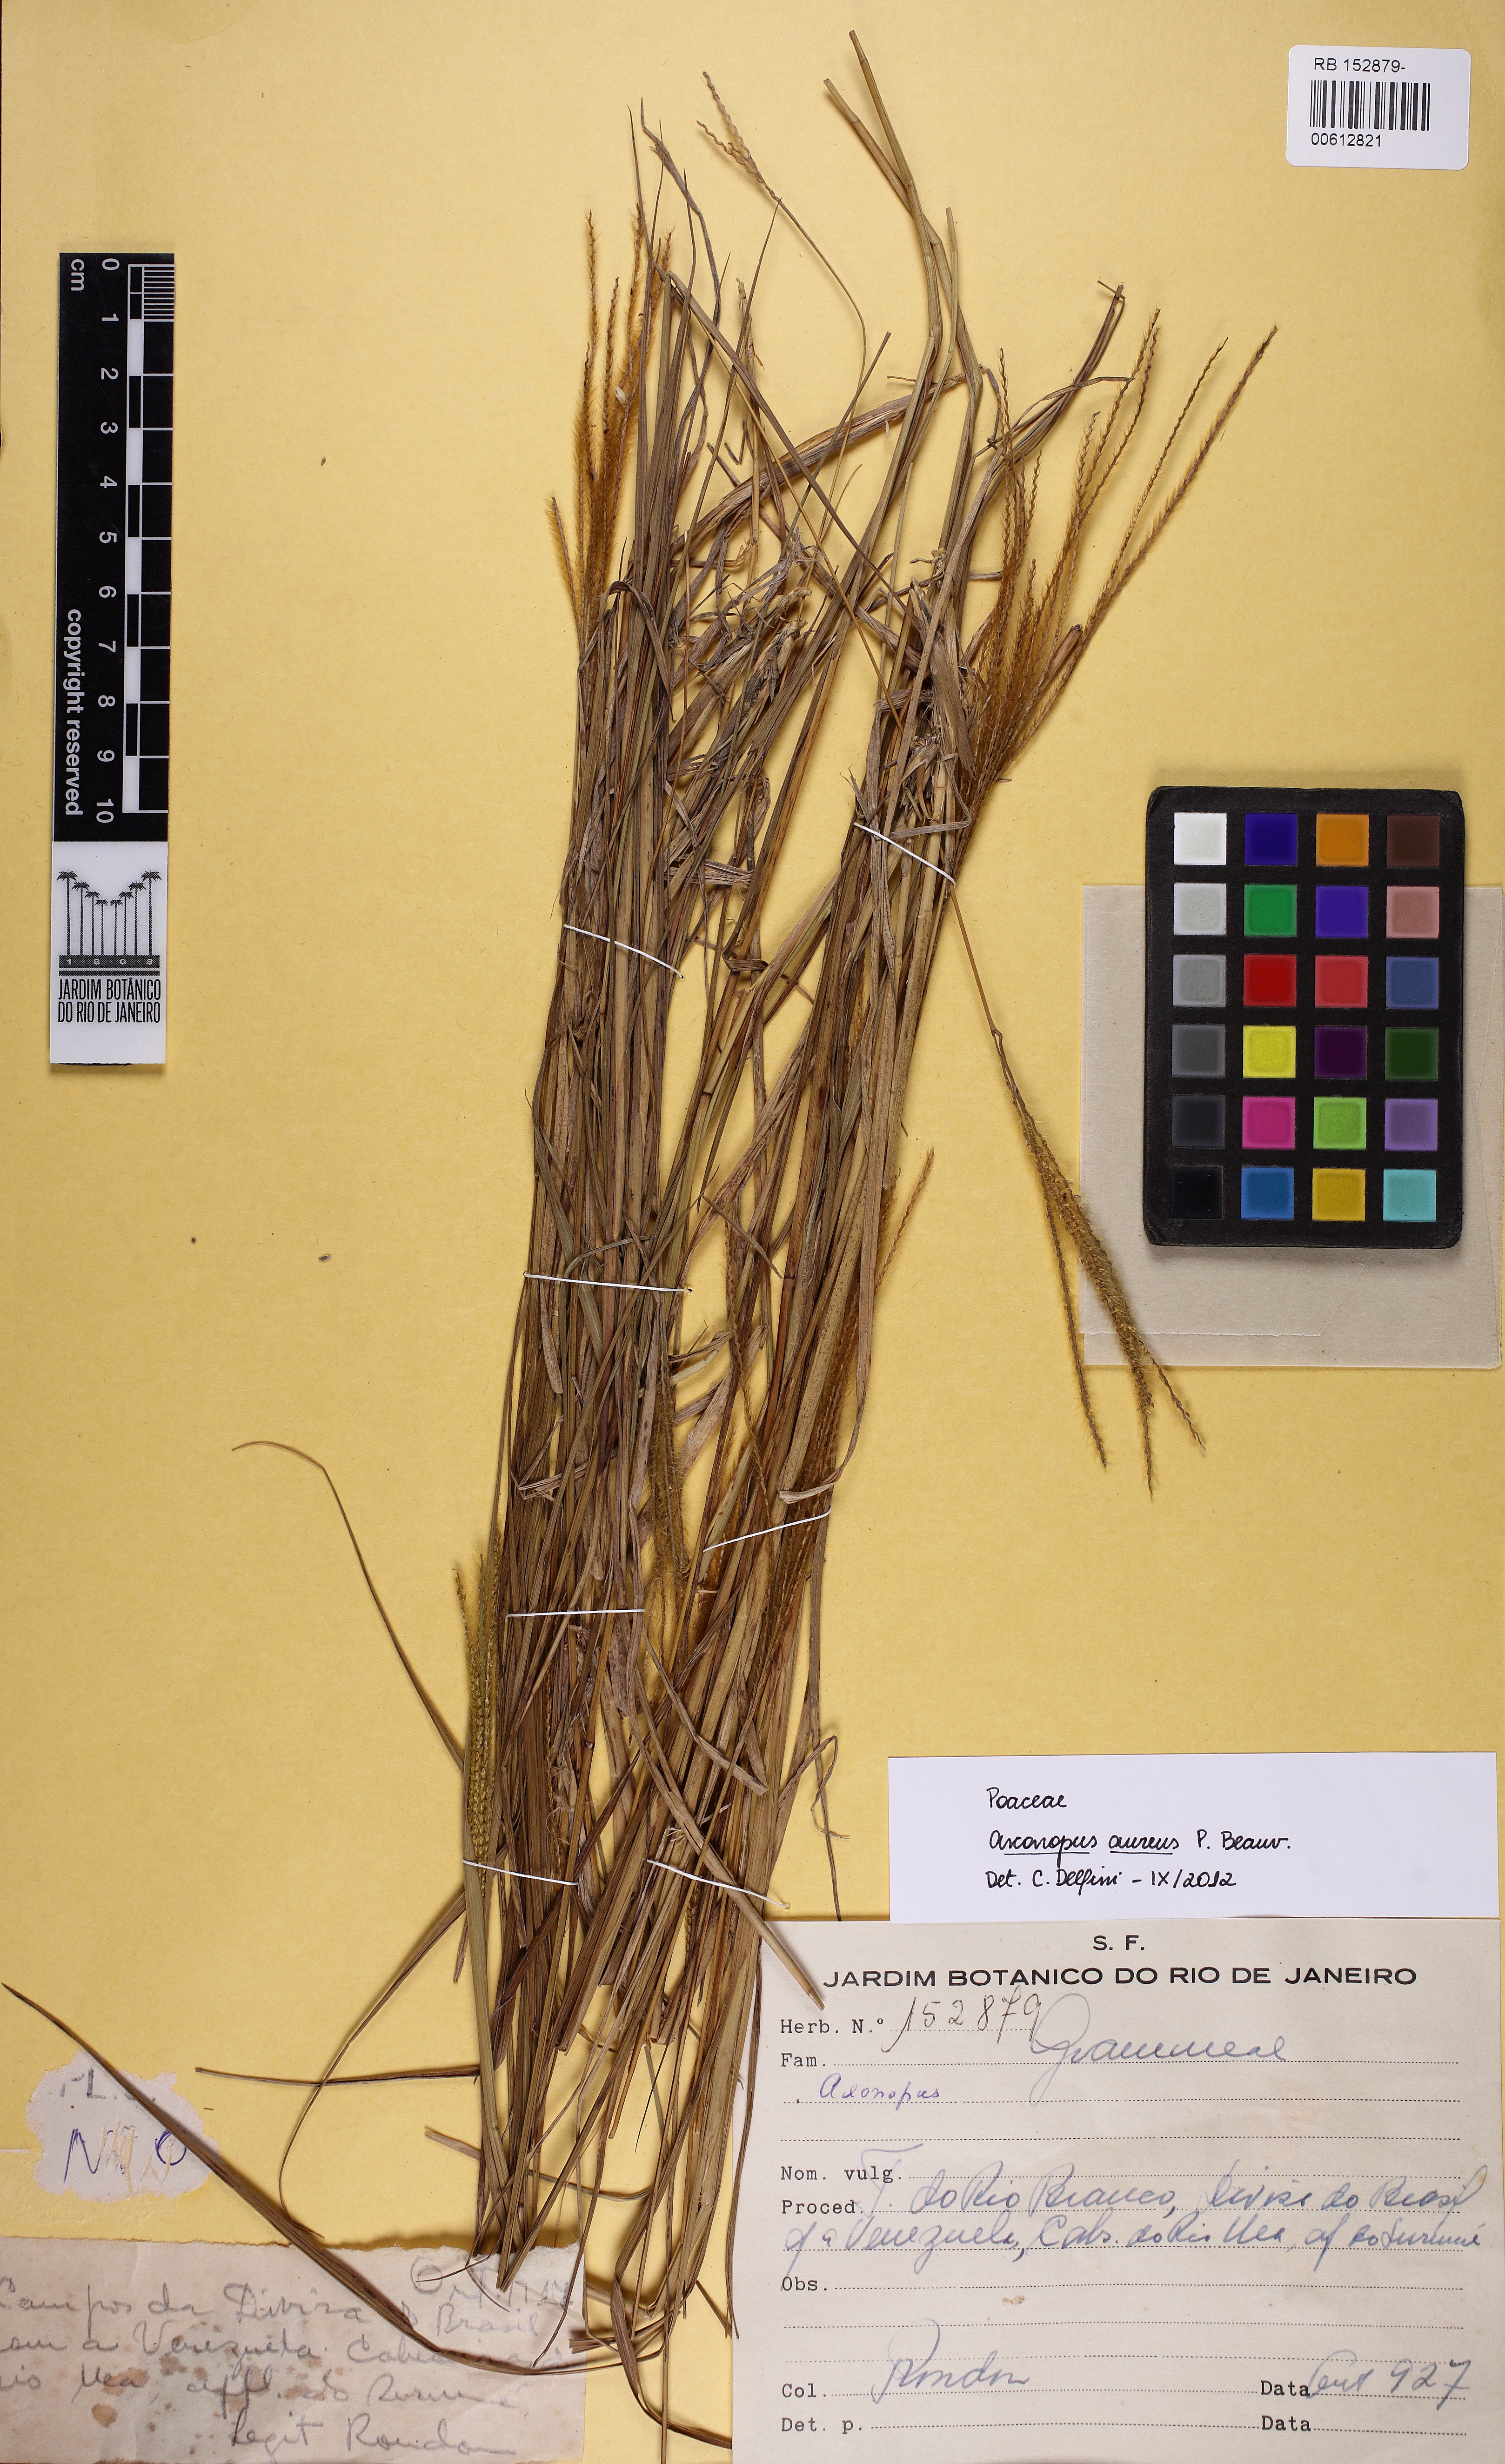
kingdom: Plantae
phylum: Tracheophyta
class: Liliopsida
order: Poales
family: Poaceae
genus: Axonopus
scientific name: Axonopus aureus
